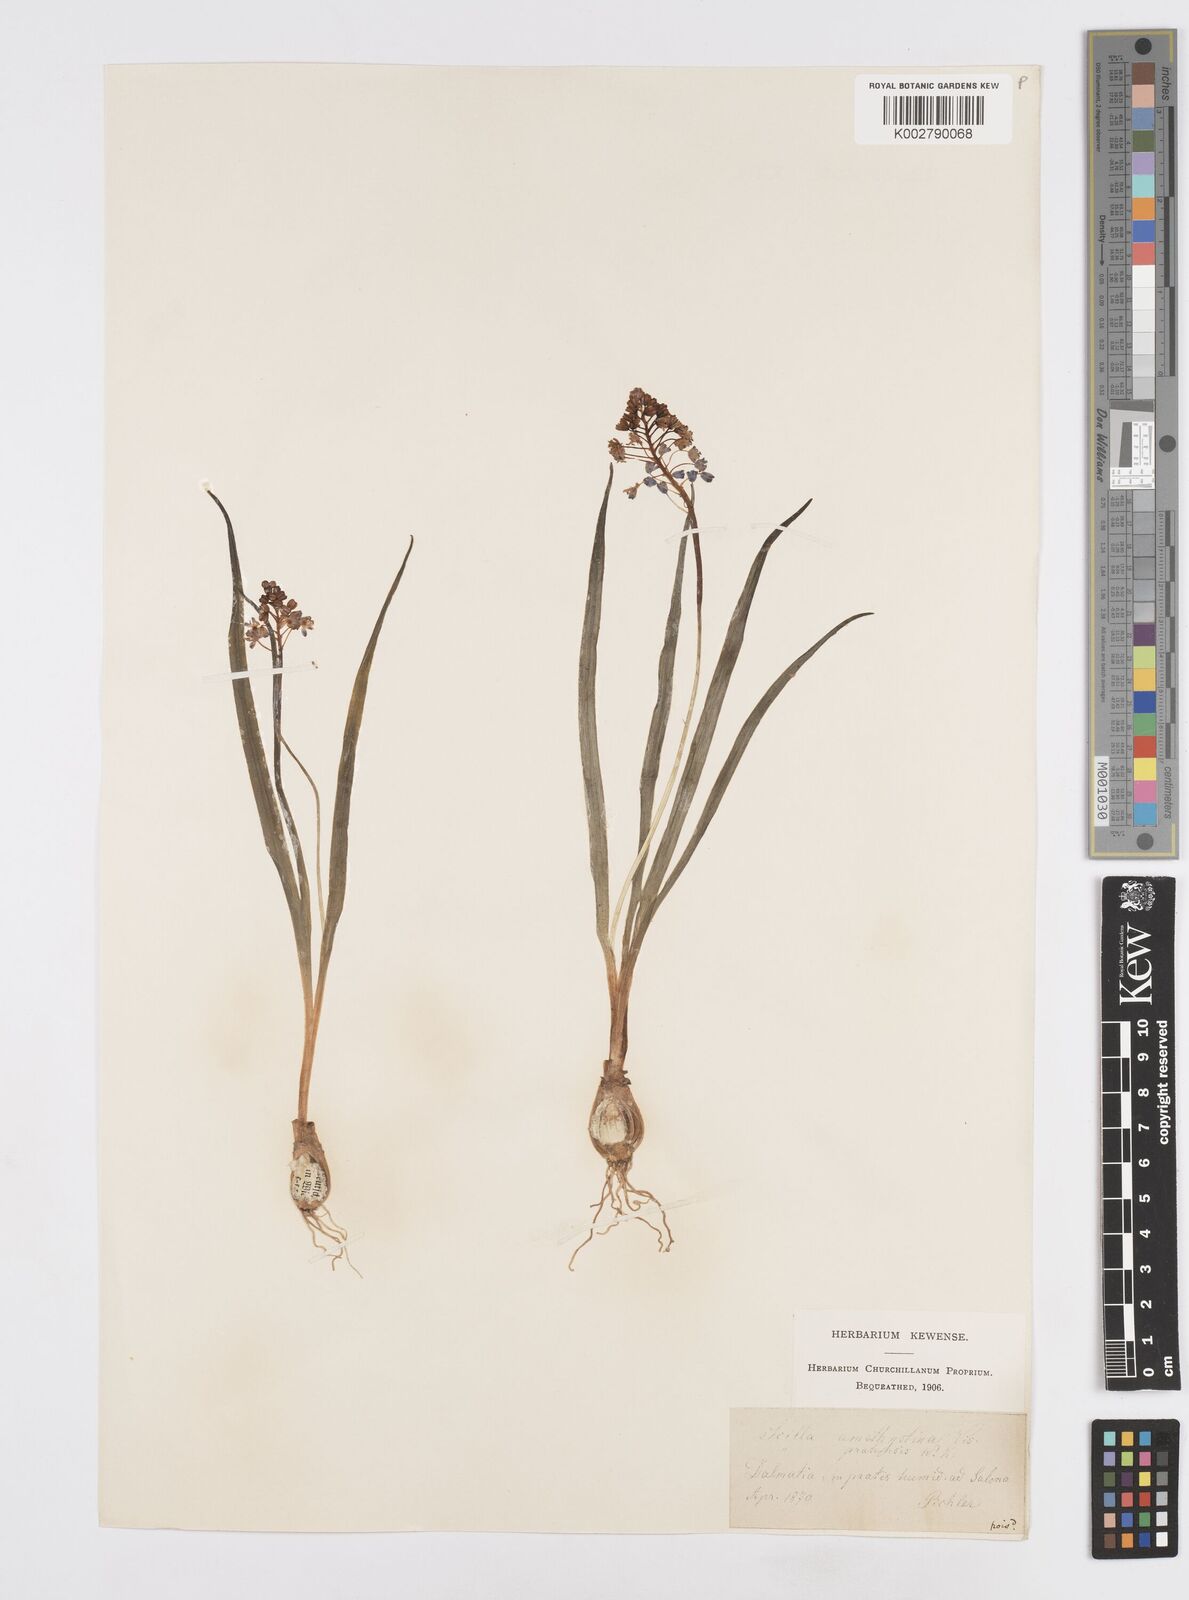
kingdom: Plantae
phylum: Tracheophyta
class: Liliopsida
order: Asparagales
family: Asparagaceae
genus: Scilla
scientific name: Scilla litardierei
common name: Amethyst meadow squill
